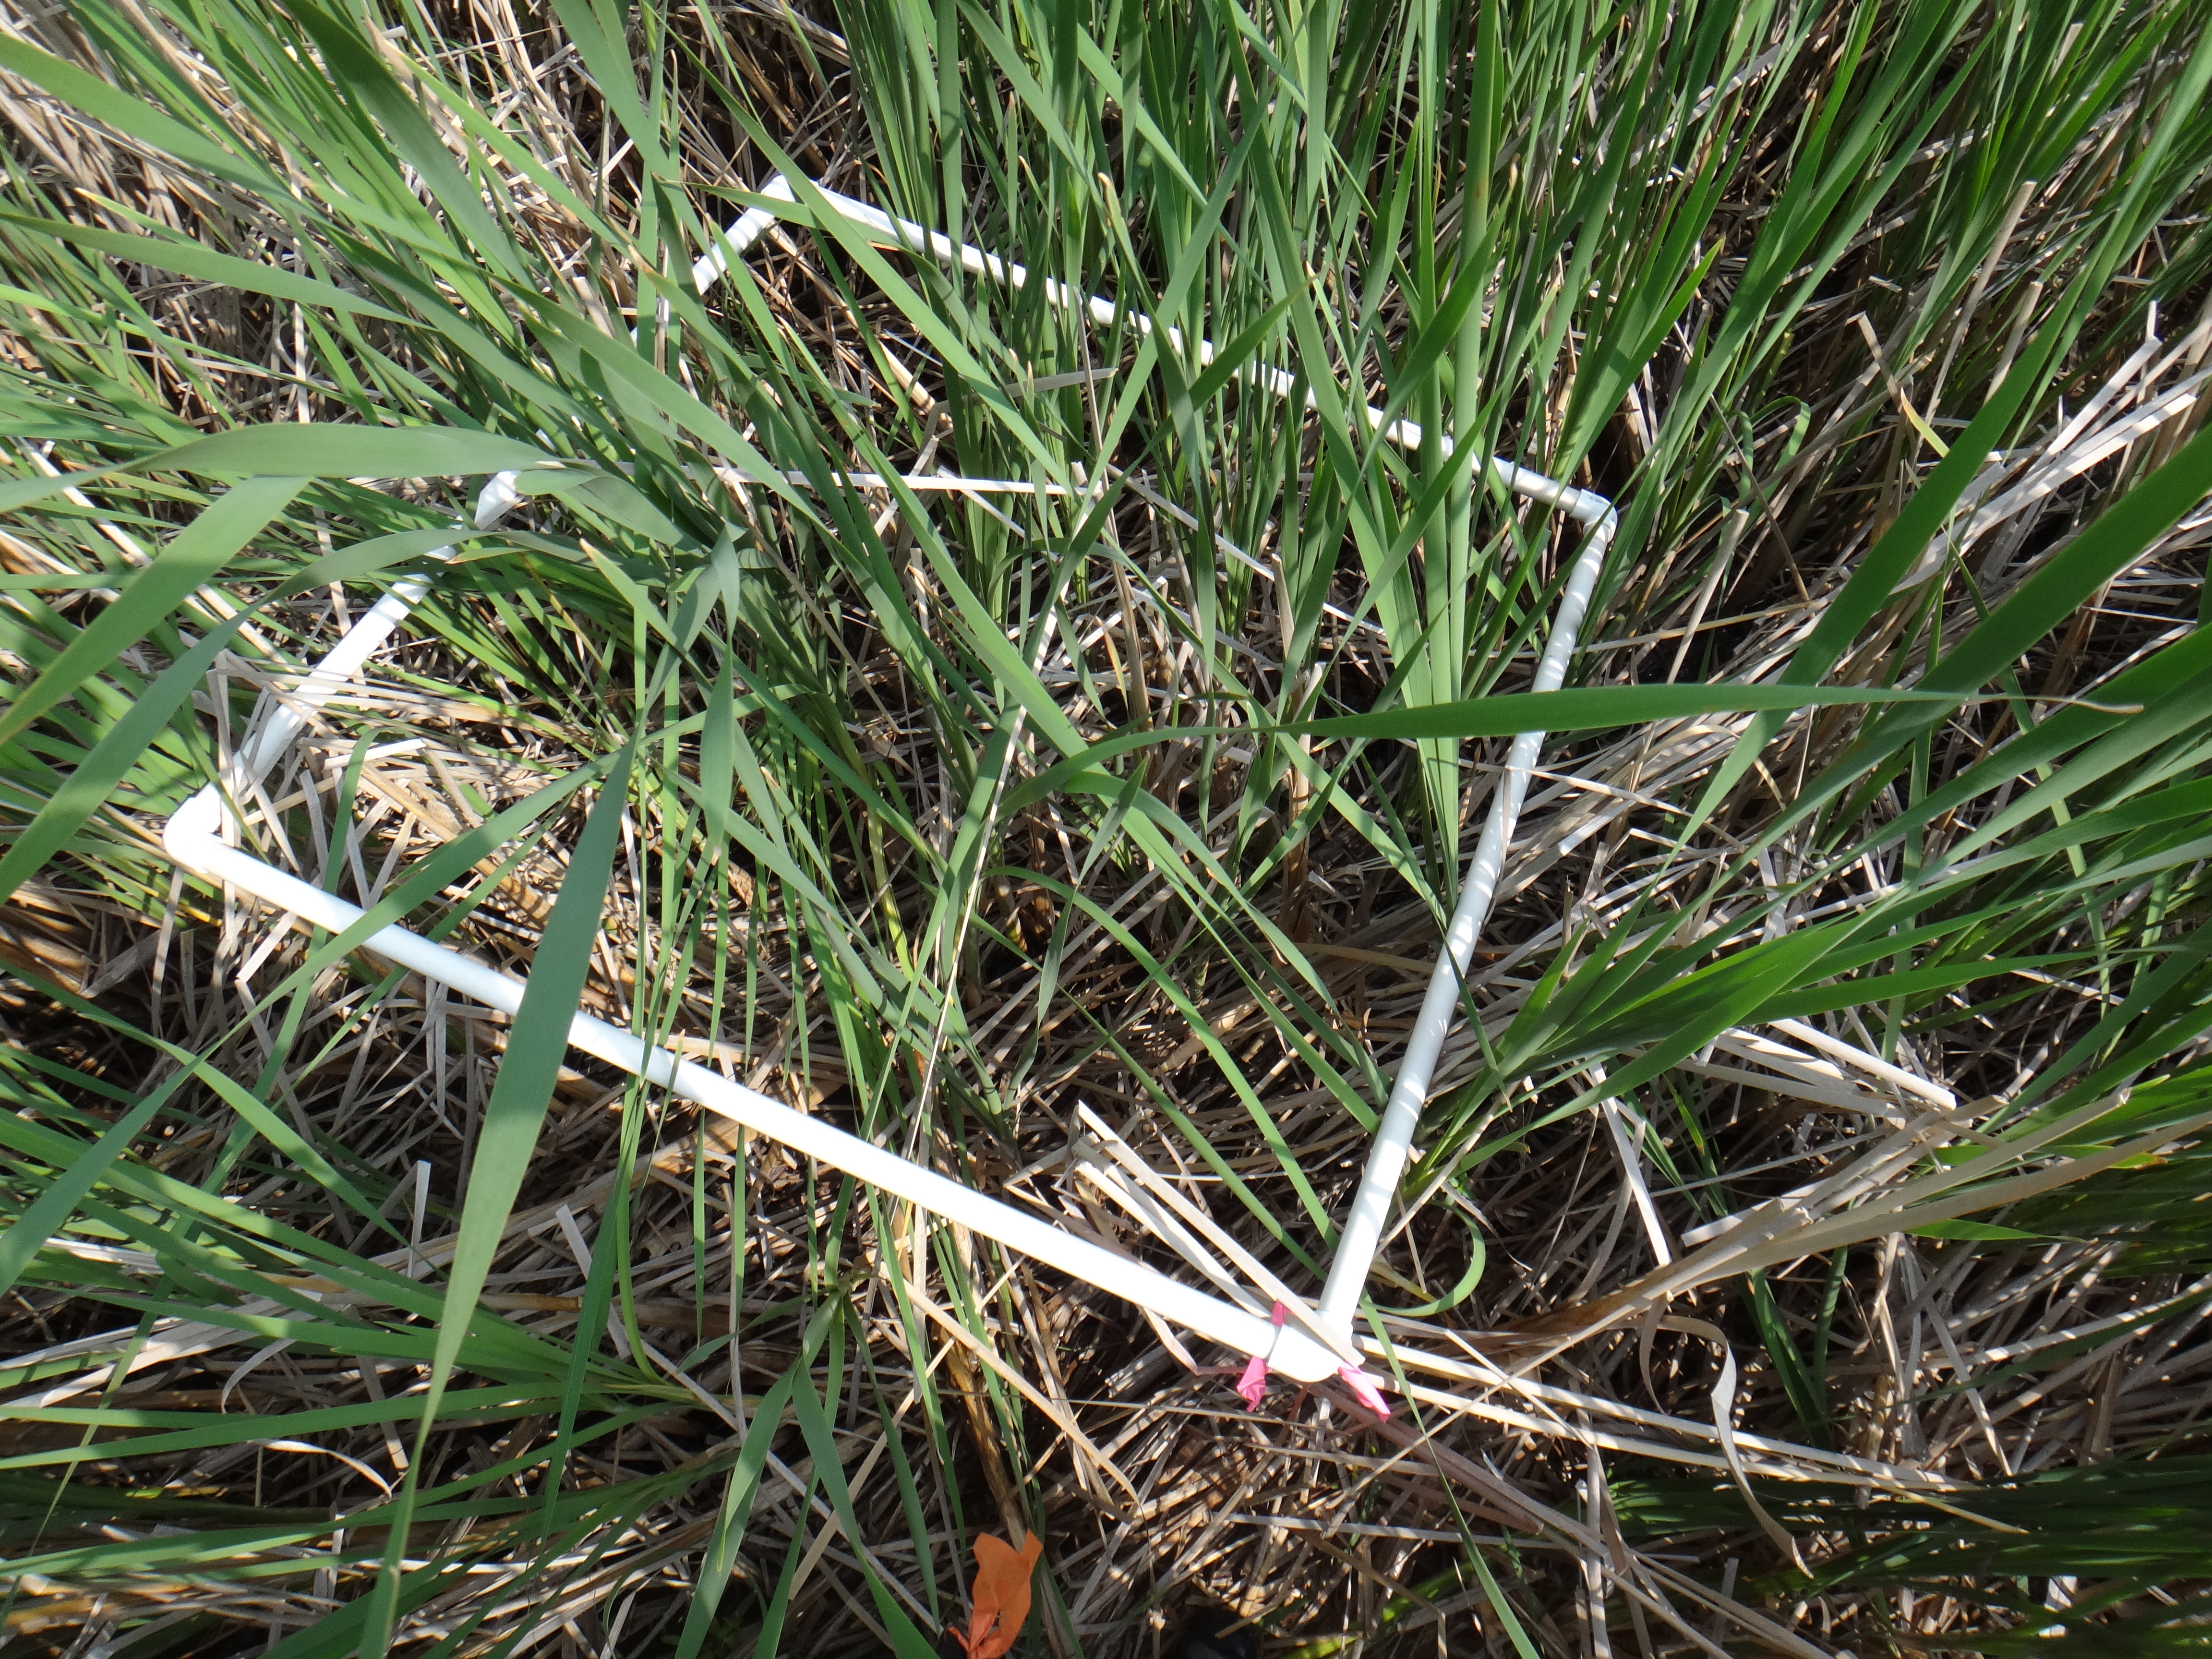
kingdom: Plantae
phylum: Tracheophyta
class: Liliopsida
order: Poales
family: Typhaceae
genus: Typha
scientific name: Typha angustifolia
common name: Lesser bulrush
